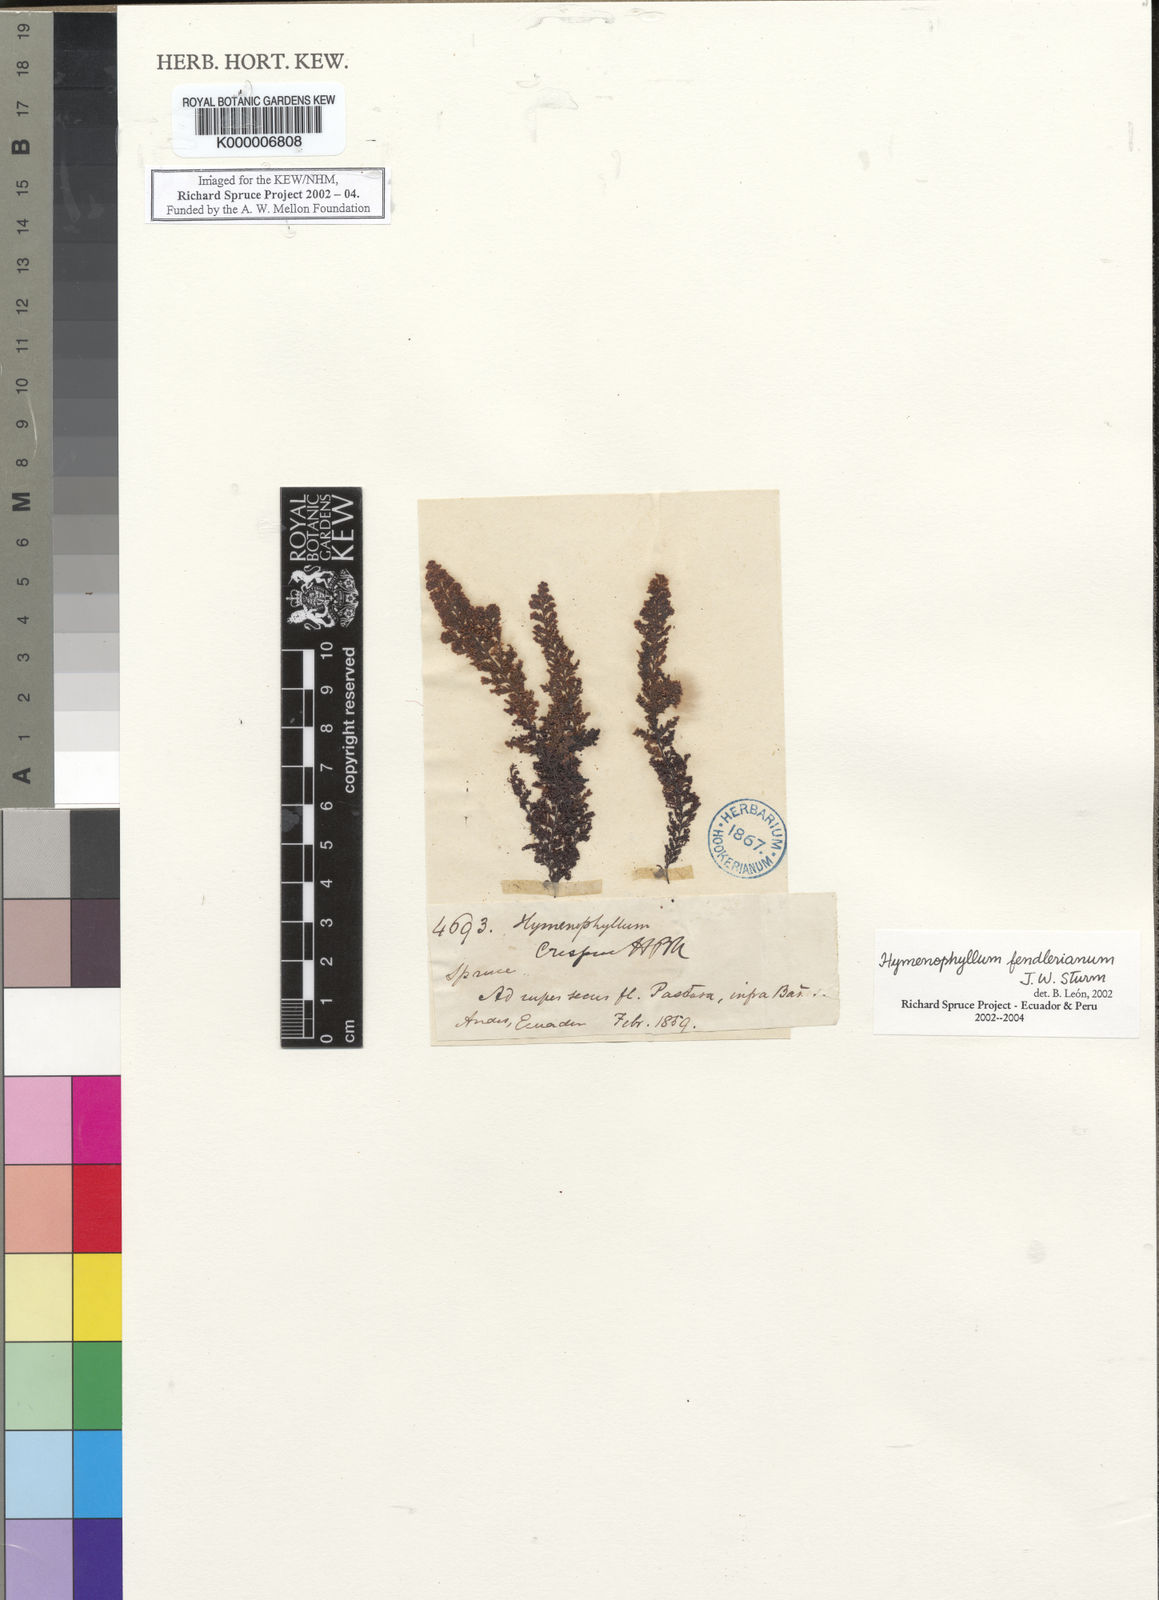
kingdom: Plantae
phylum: Tracheophyta
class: Polypodiopsida
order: Hymenophyllales
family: Hymenophyllaceae
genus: Hymenophyllum
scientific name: Hymenophyllum fendlerianum
